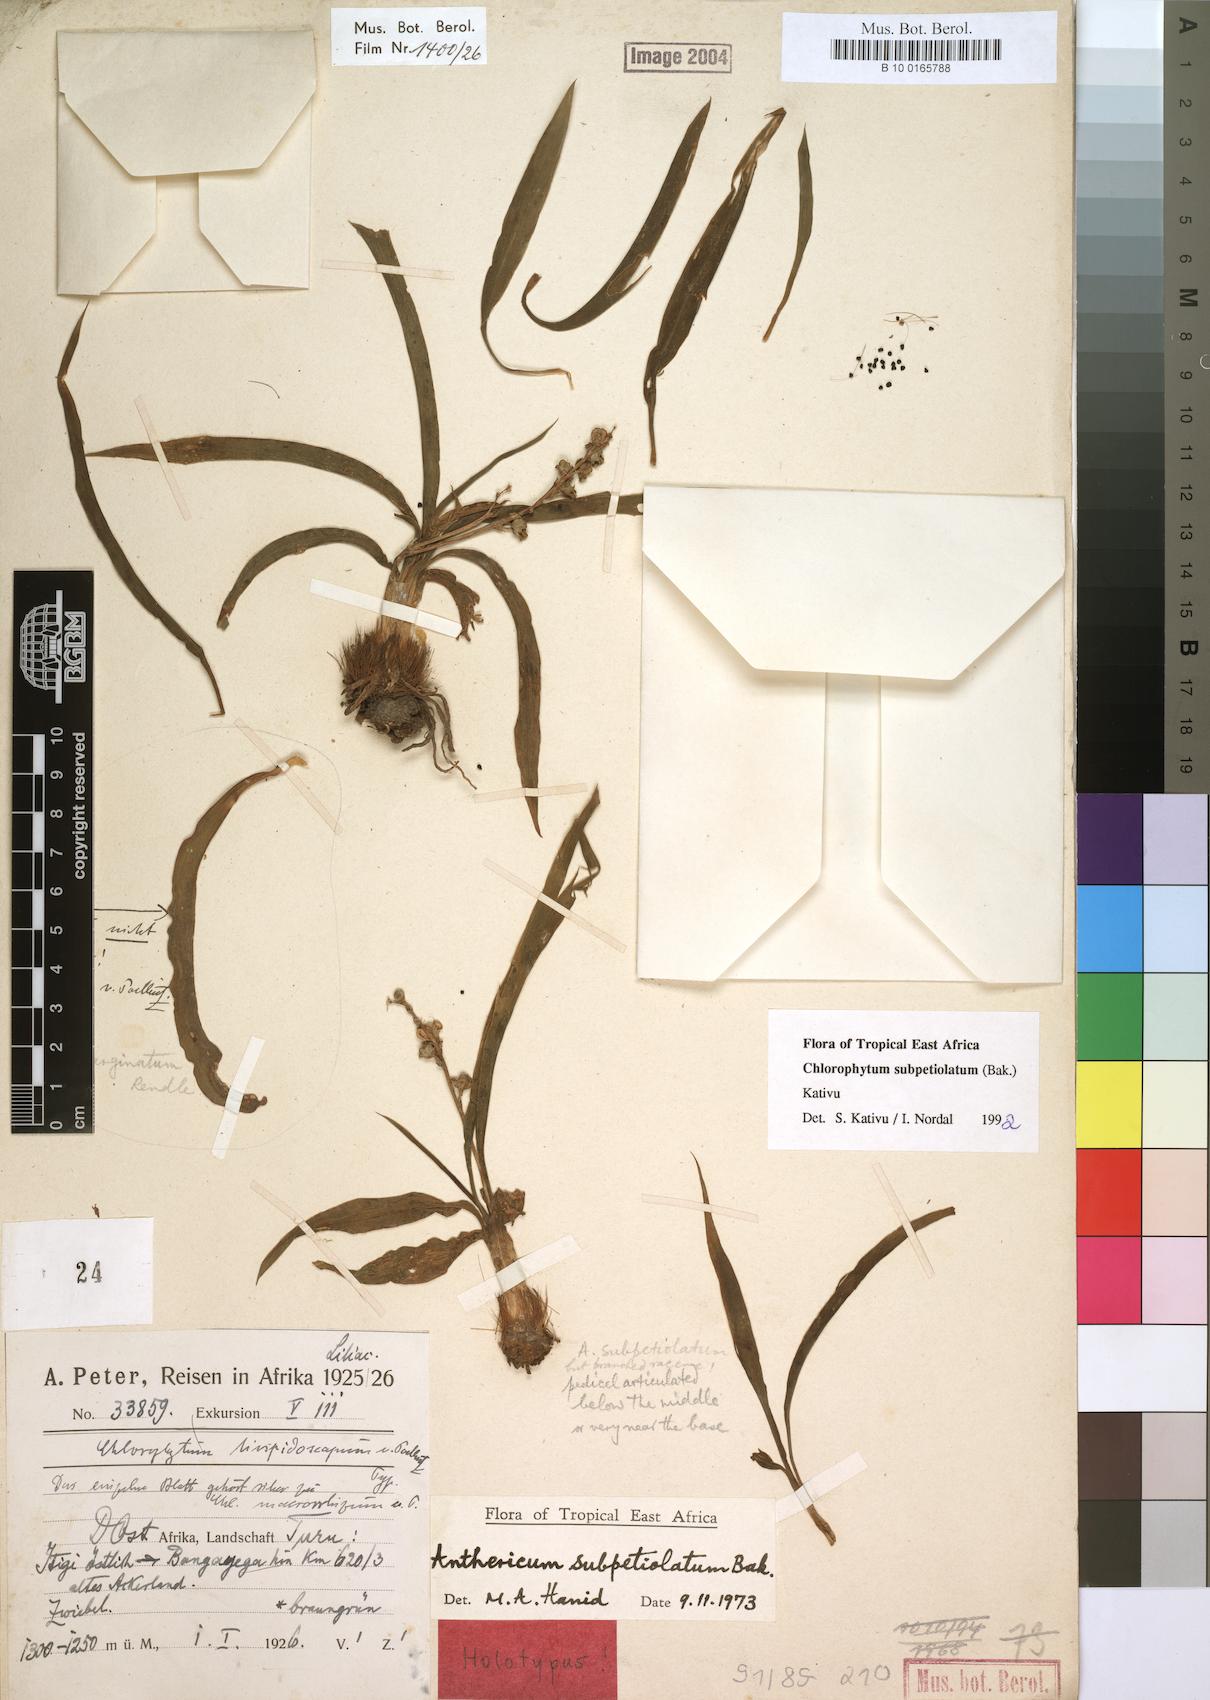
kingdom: Plantae
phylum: Tracheophyta
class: Liliopsida
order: Asparagales
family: Asparagaceae
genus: Chlorophytum
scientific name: Chlorophytum subpetiolatum
